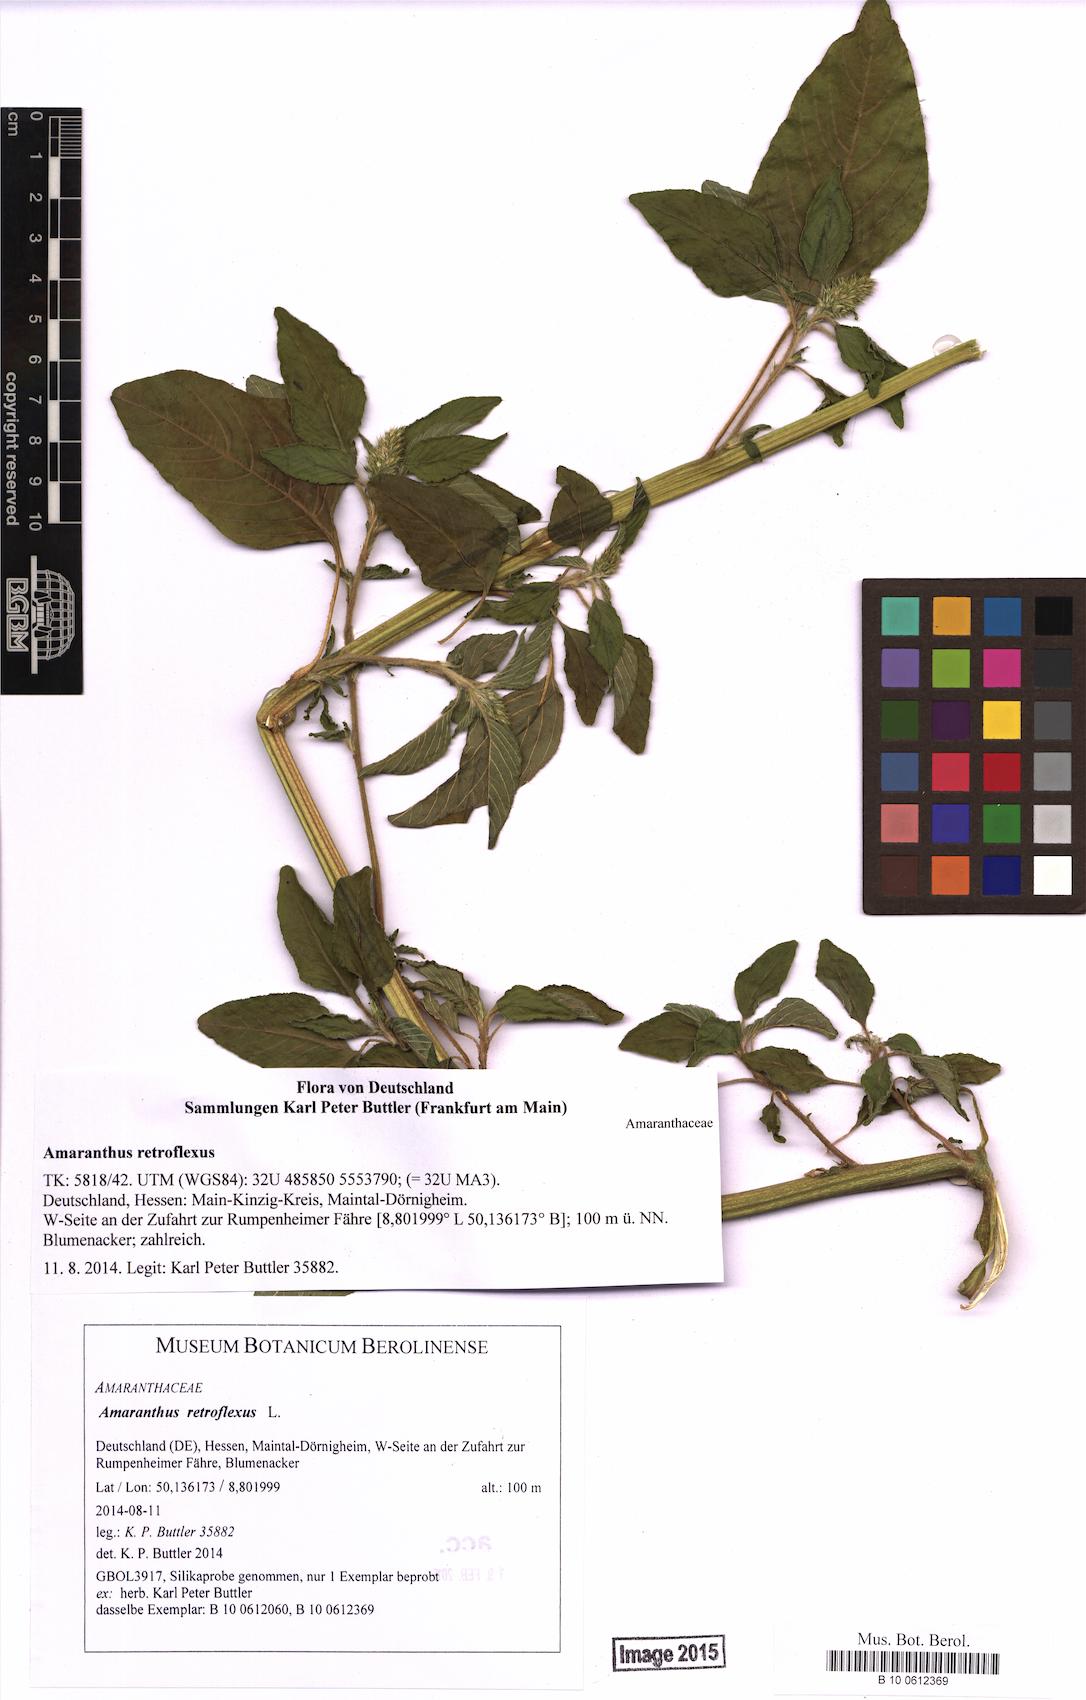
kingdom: Plantae
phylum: Tracheophyta
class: Magnoliopsida
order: Caryophyllales
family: Amaranthaceae
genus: Amaranthus
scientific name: Amaranthus retroflexus
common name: Redroot amaranth
